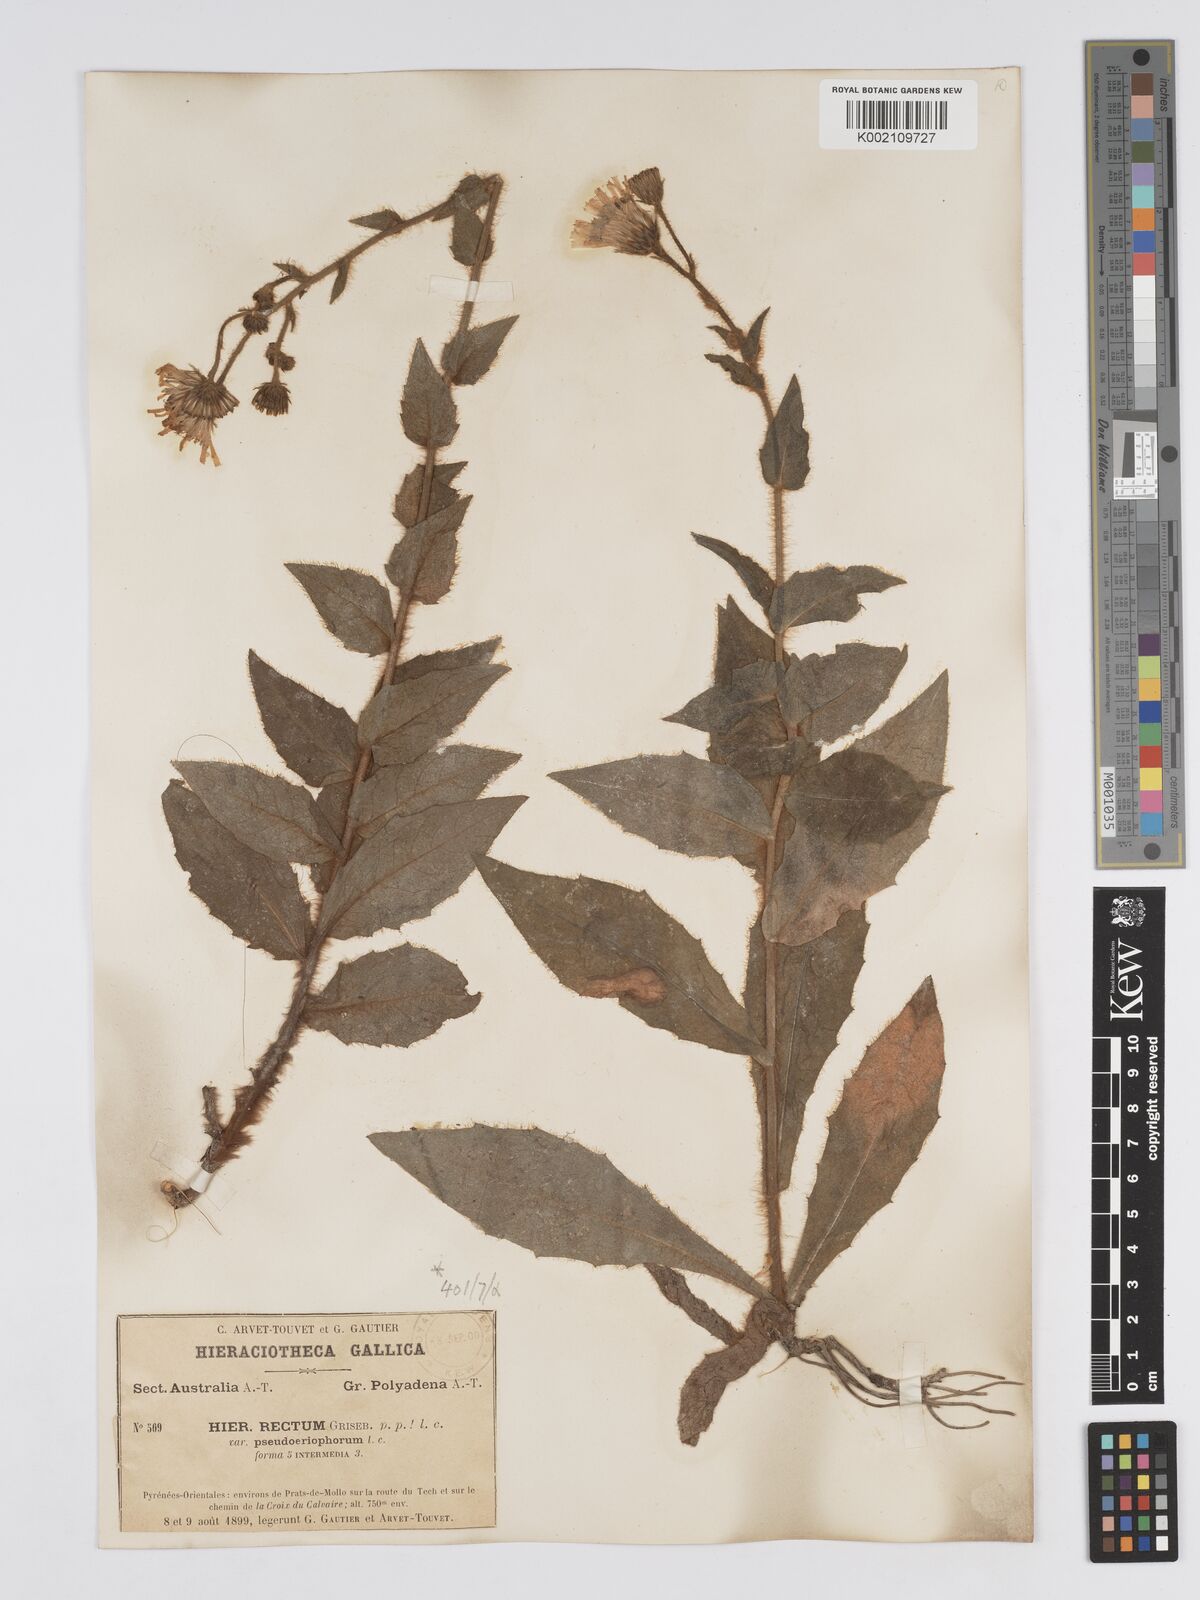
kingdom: Plantae
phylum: Tracheophyta
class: Magnoliopsida
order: Asterales
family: Asteraceae
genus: Hieracium
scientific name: Hieracium
